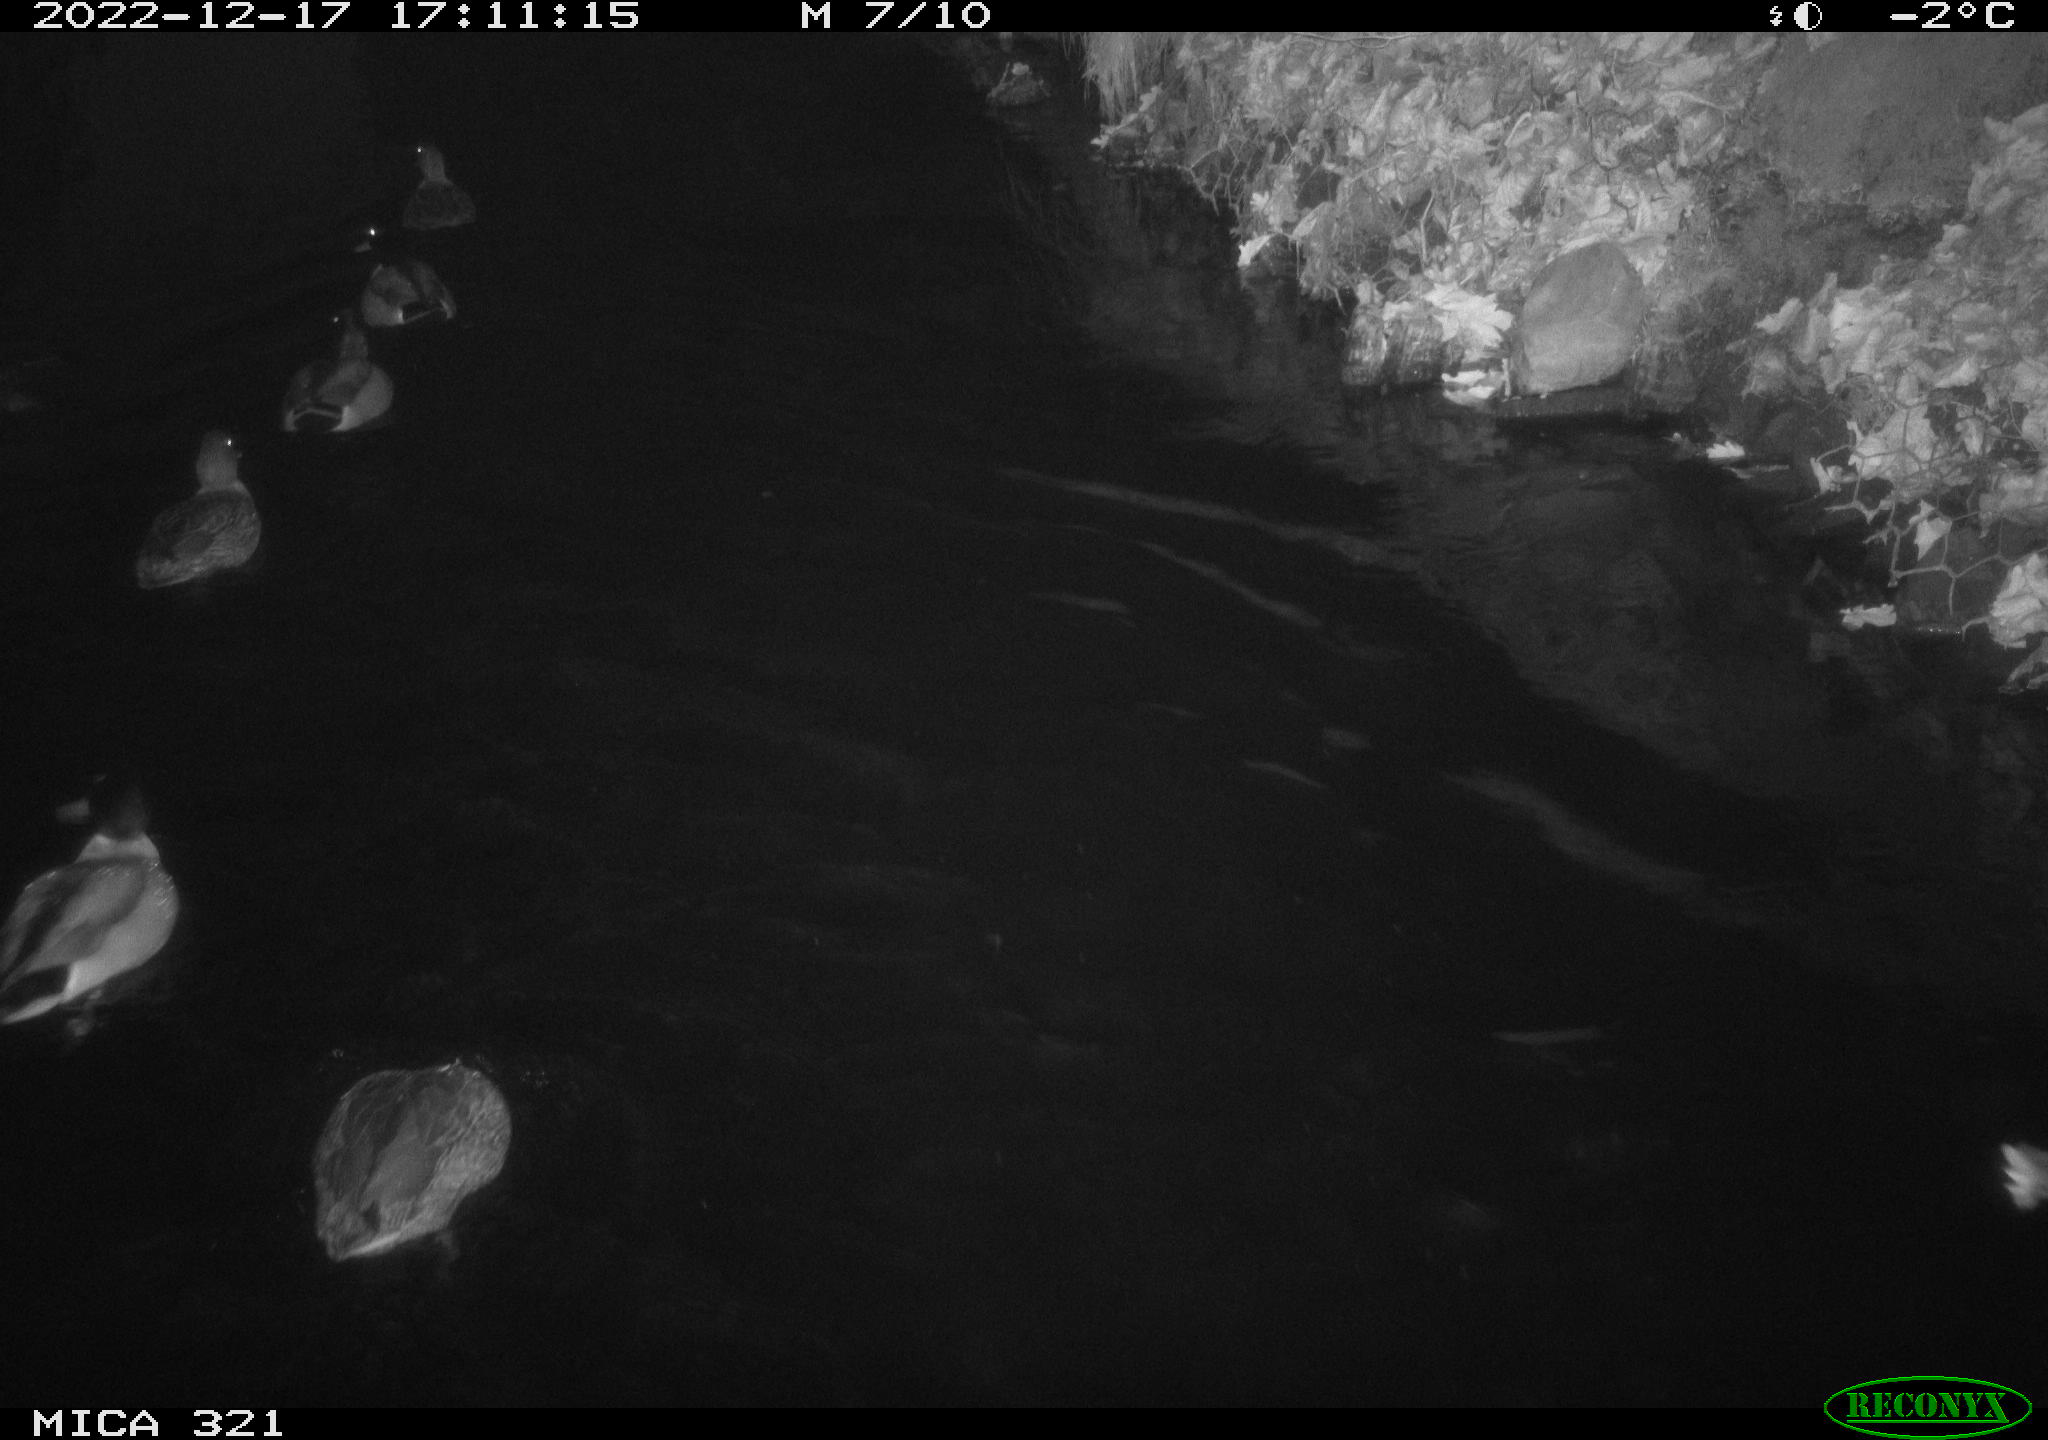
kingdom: Animalia
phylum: Chordata
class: Aves
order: Anseriformes
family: Anatidae
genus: Anas
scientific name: Anas
